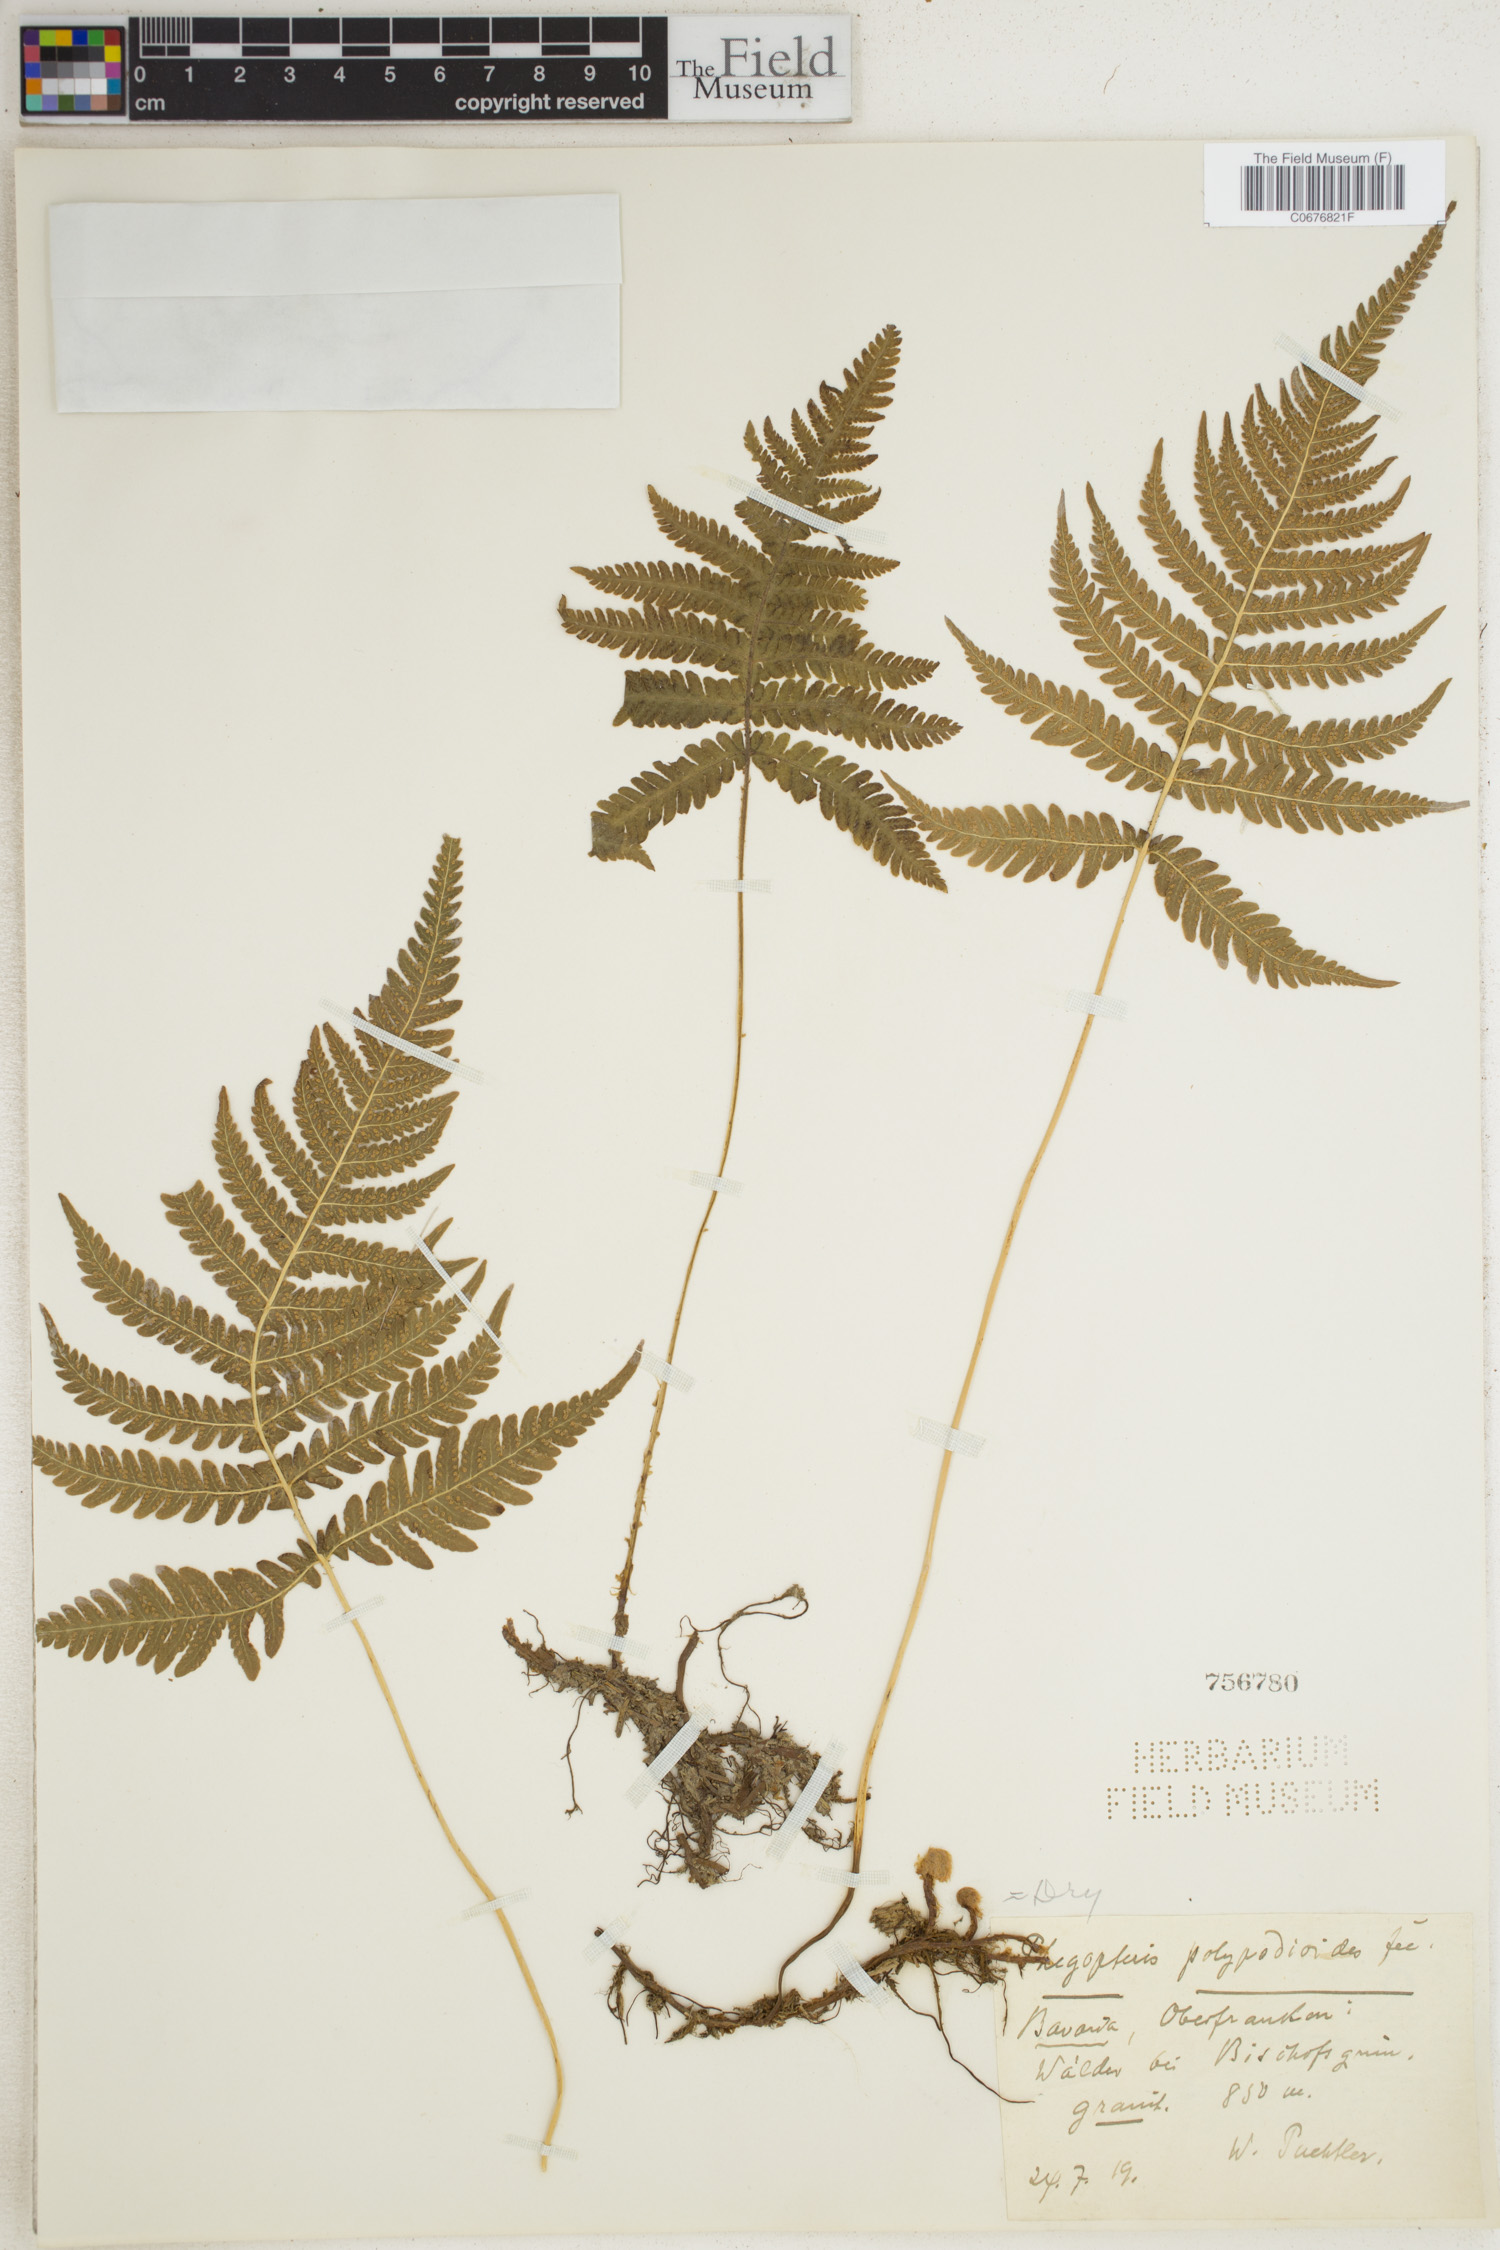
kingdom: Plantae
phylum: Tracheophyta
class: Polypodiopsida
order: Polypodiales
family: Thelypteridaceae
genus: Phegopteris
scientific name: Phegopteris connectilis
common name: Beech fern
